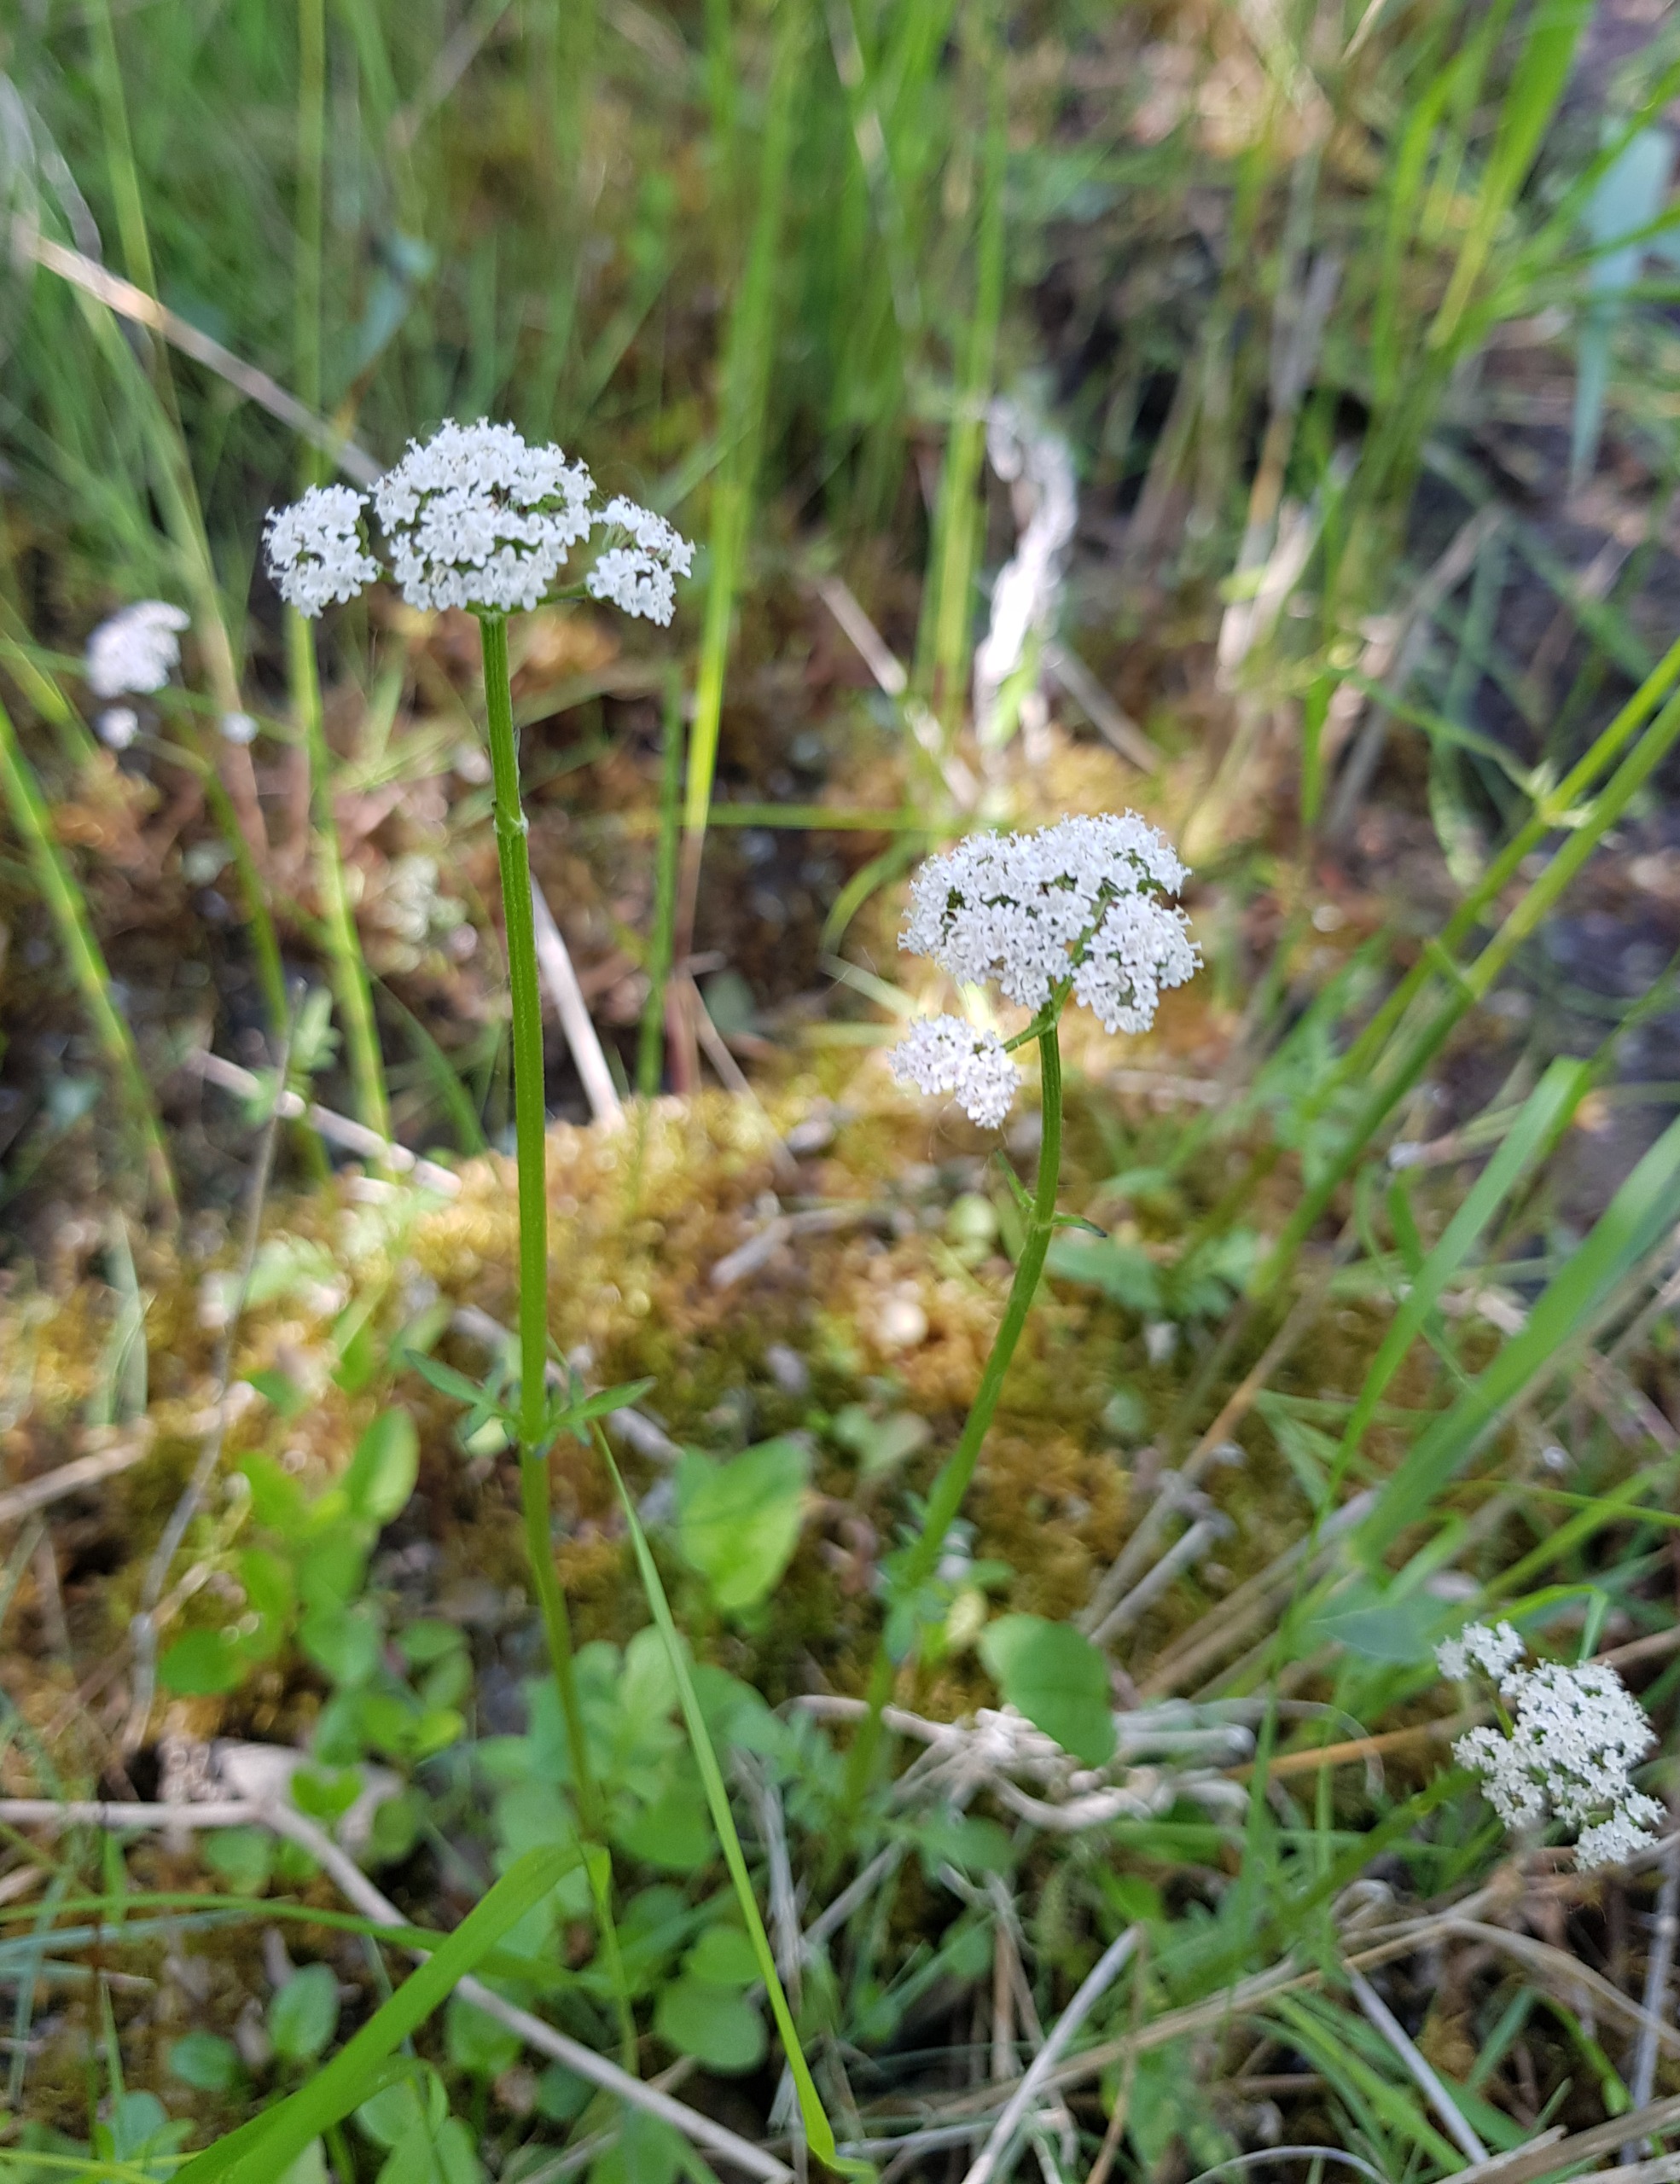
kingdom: Plantae
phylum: Tracheophyta
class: Magnoliopsida
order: Dipsacales
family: Caprifoliaceae
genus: Valeriana
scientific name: Valeriana dioica
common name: Tvebo baldrian
